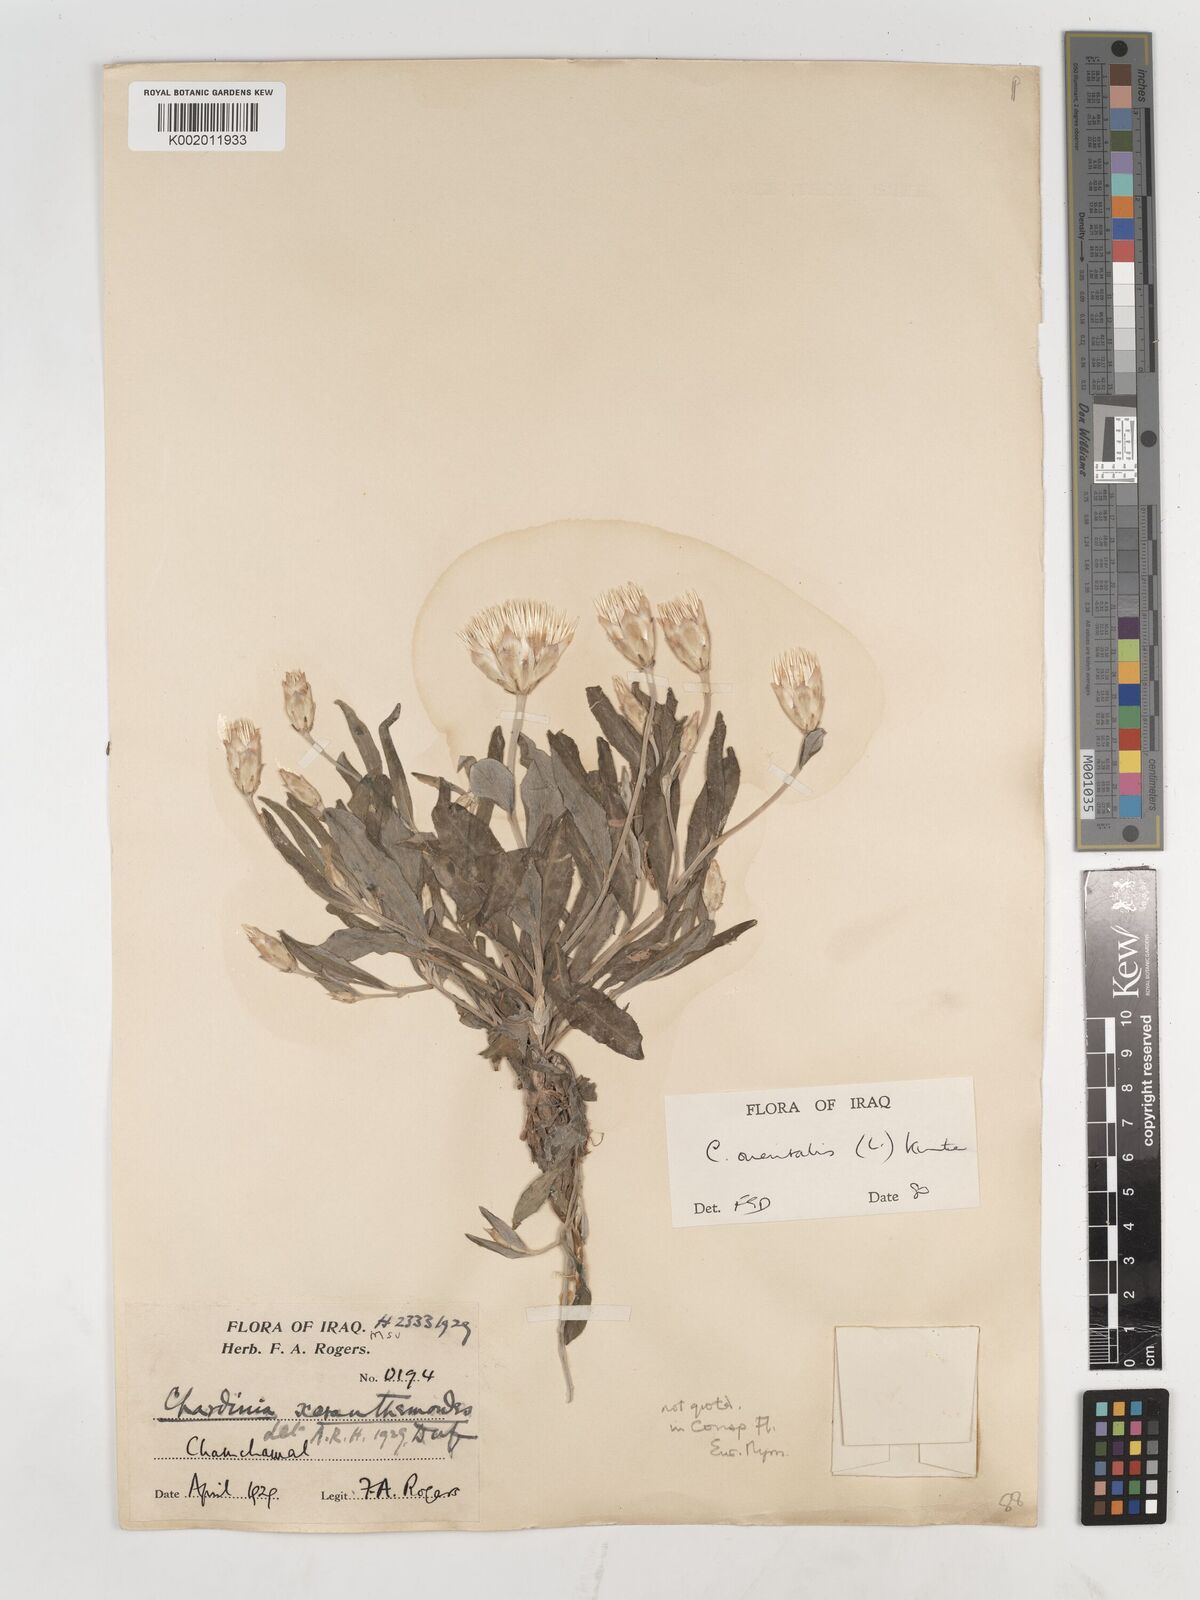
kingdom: Plantae
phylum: Tracheophyta
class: Magnoliopsida
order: Asterales
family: Asteraceae
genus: Chardinia
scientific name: Chardinia orientalis
